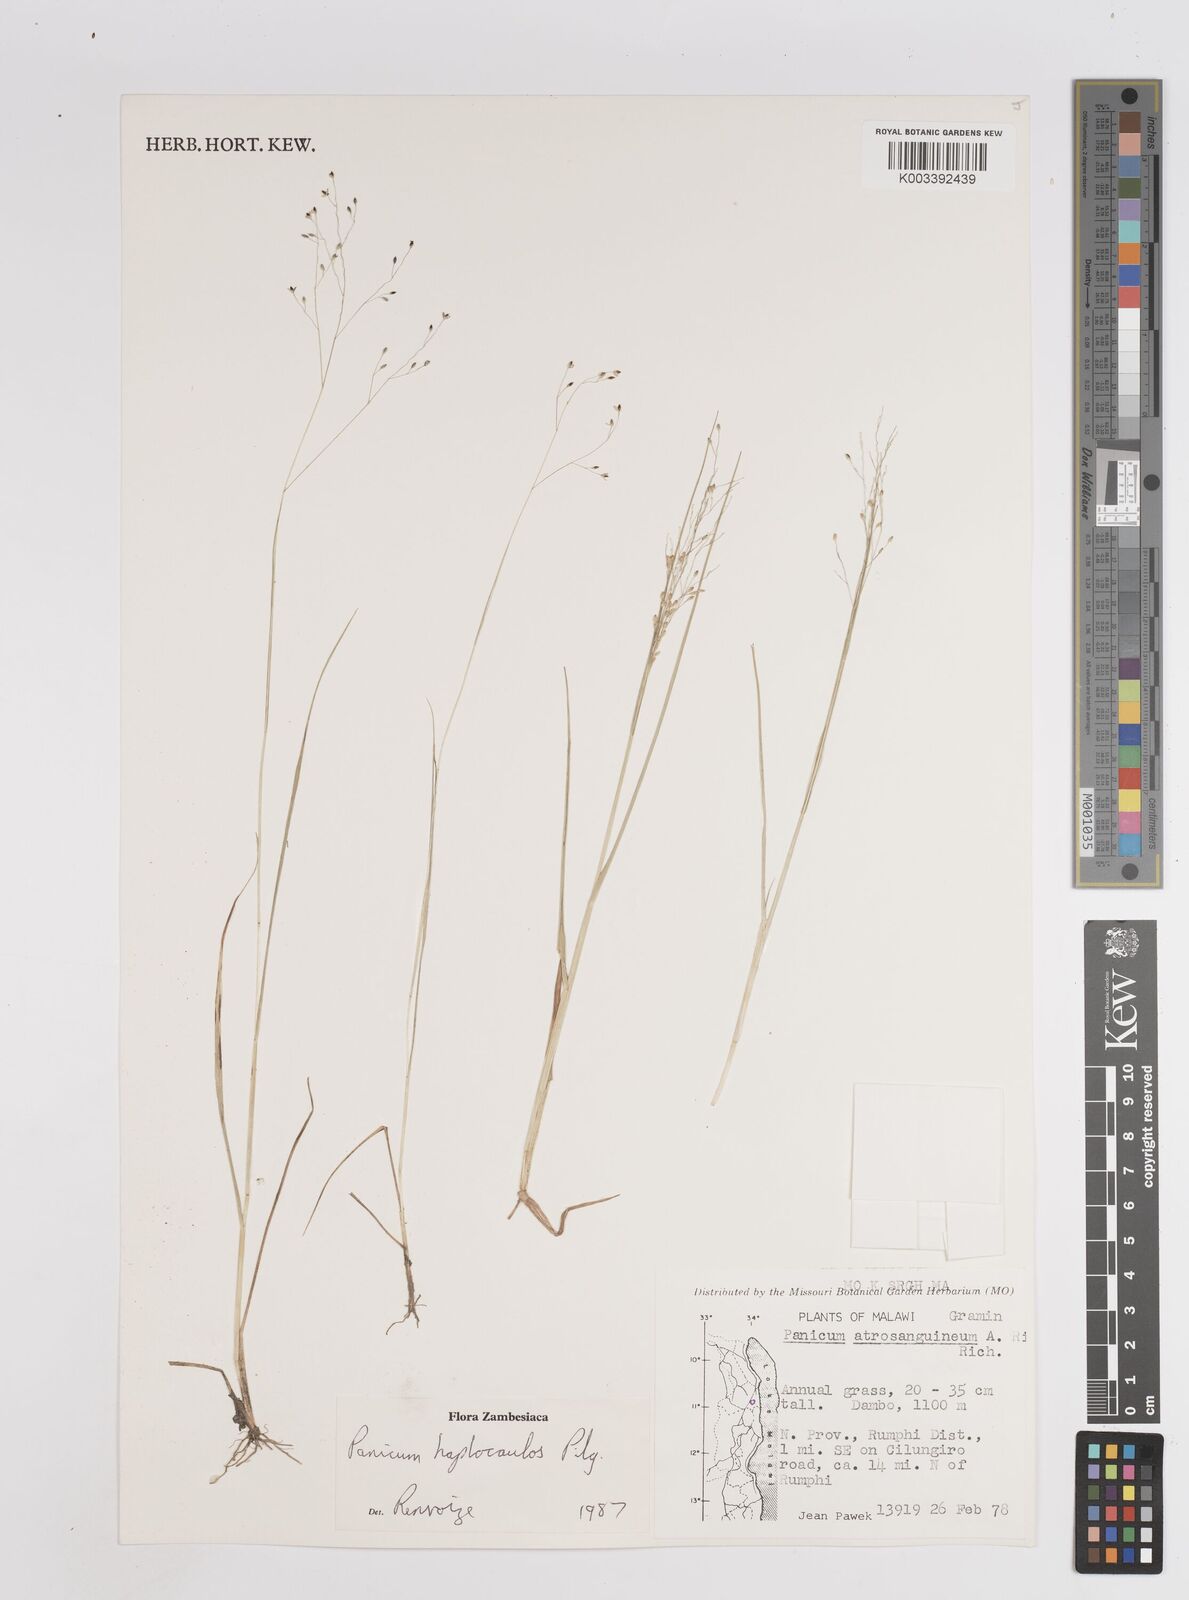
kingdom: Plantae
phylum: Tracheophyta
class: Liliopsida
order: Poales
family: Poaceae
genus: Panicum
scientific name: Panicum haplocaulos
